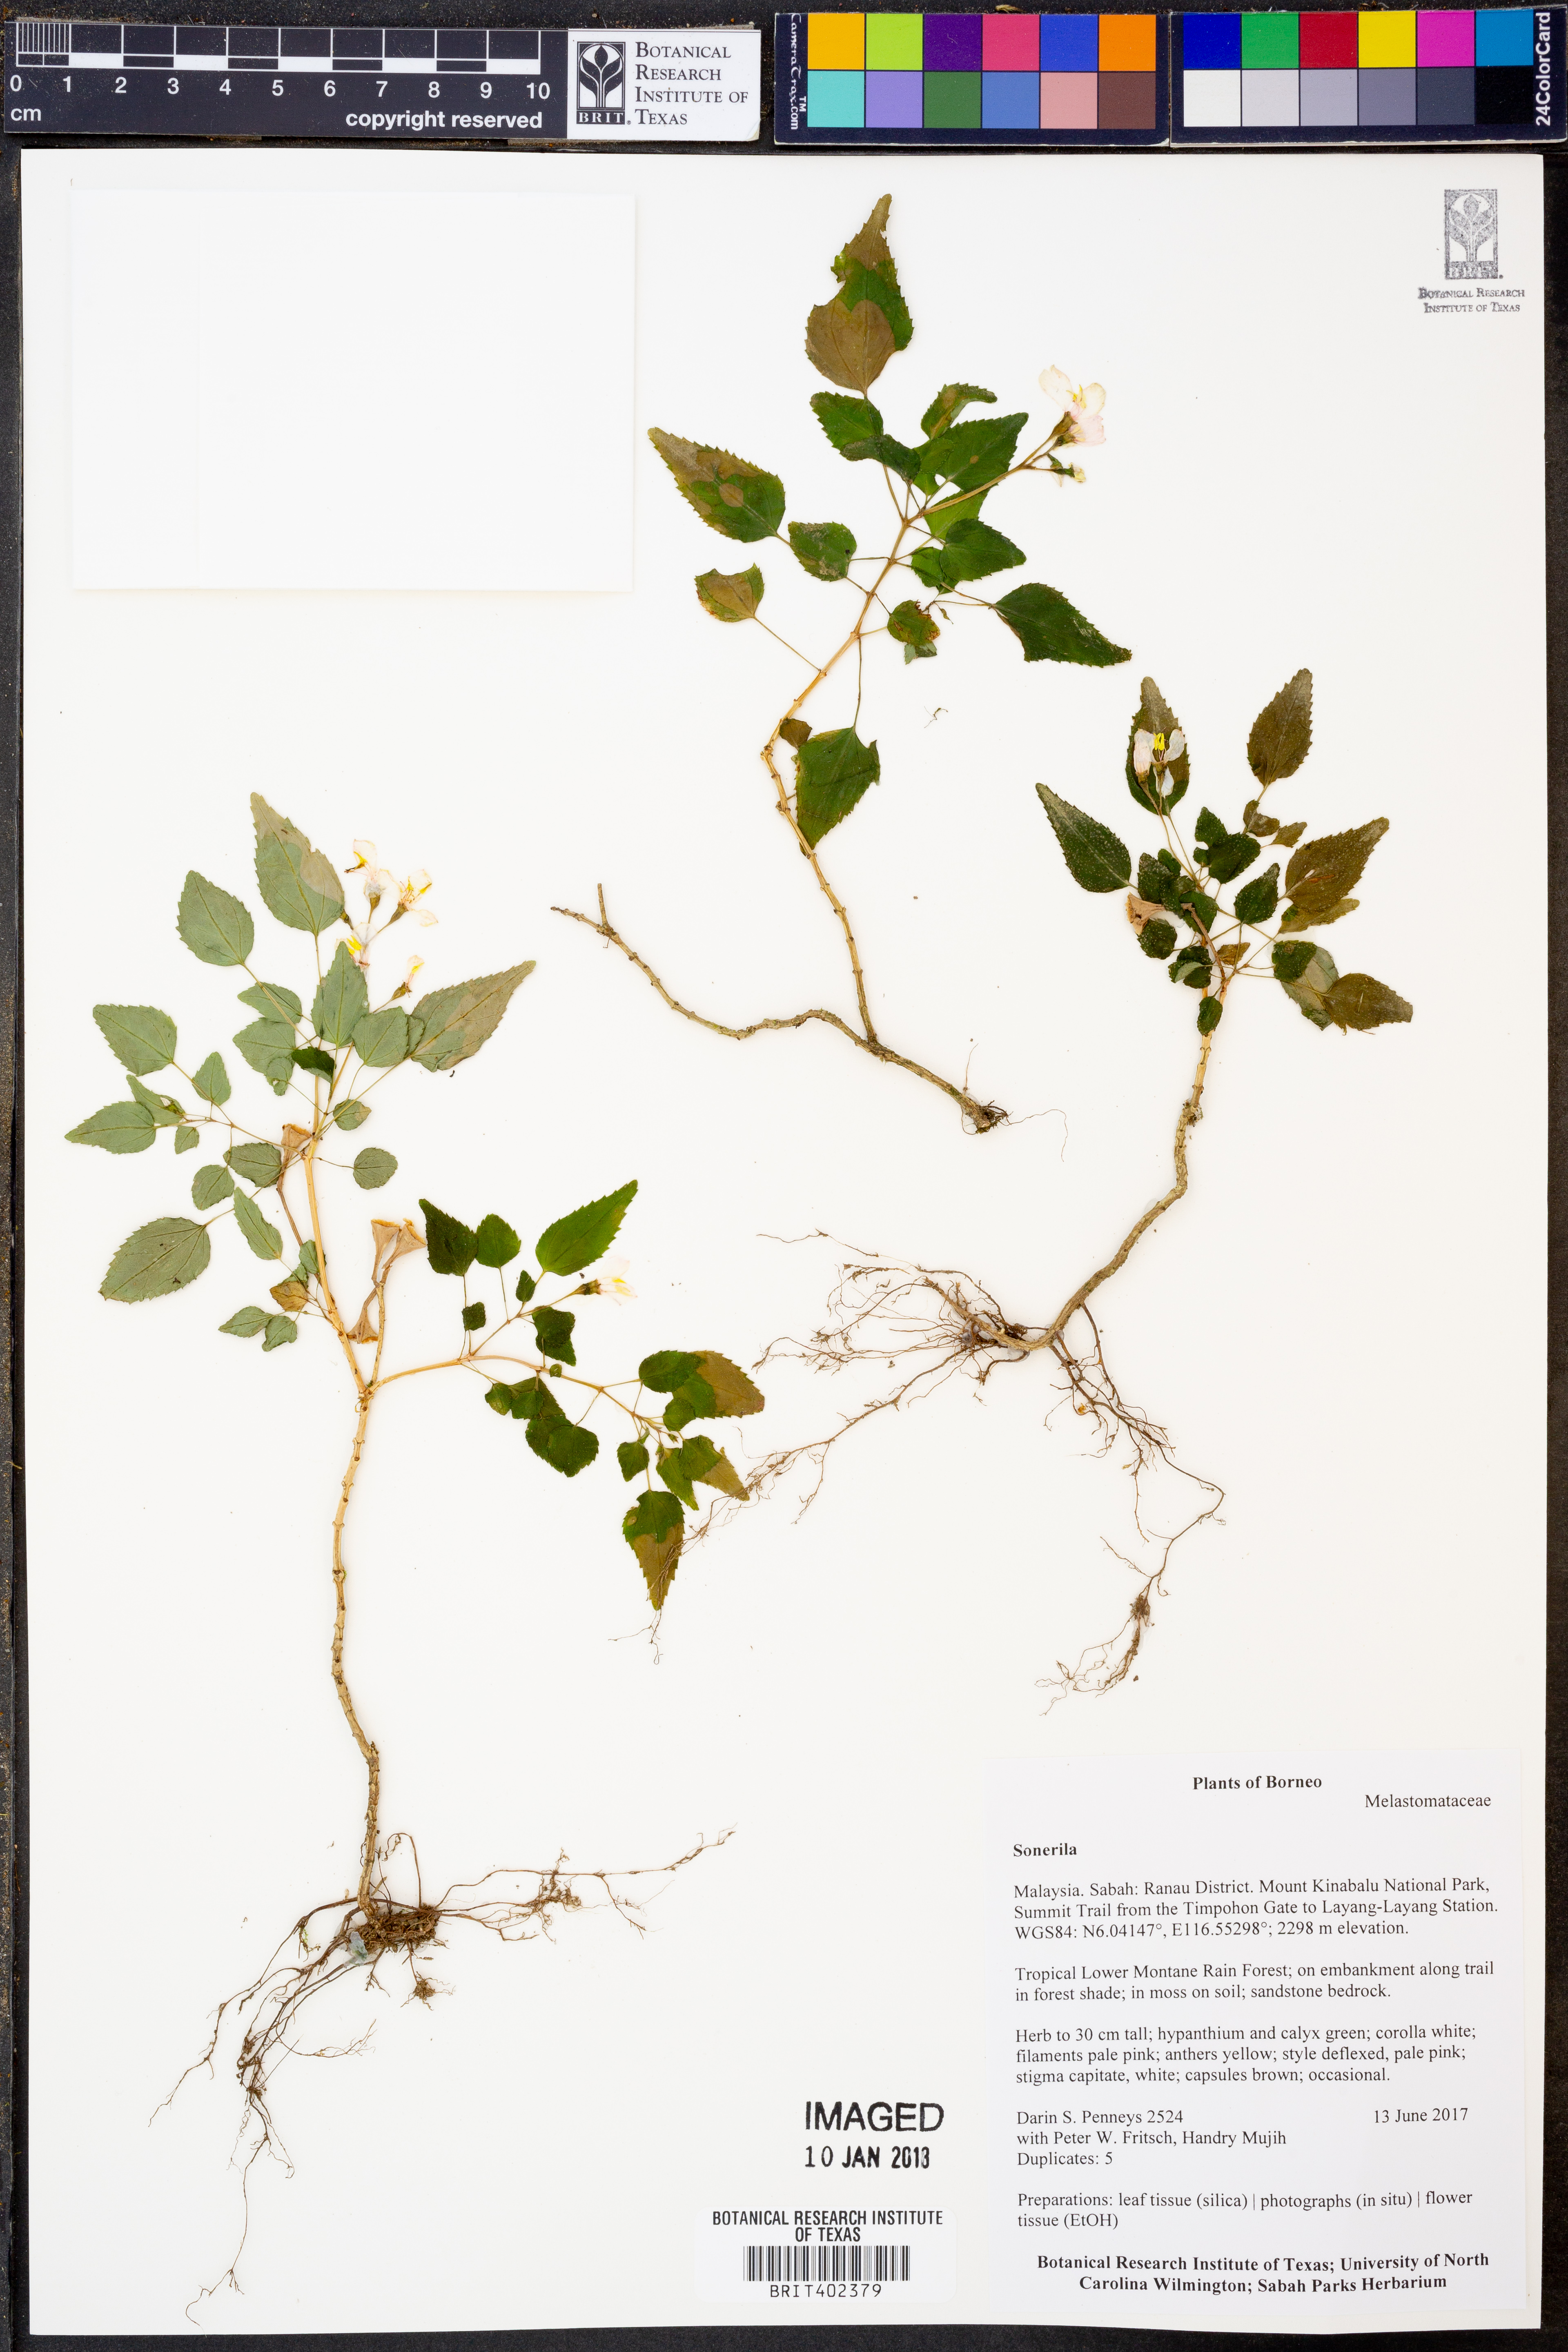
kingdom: Plantae
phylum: Tracheophyta
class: Magnoliopsida
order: Myrtales
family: Melastomataceae
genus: Sonerila
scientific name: Sonerila
